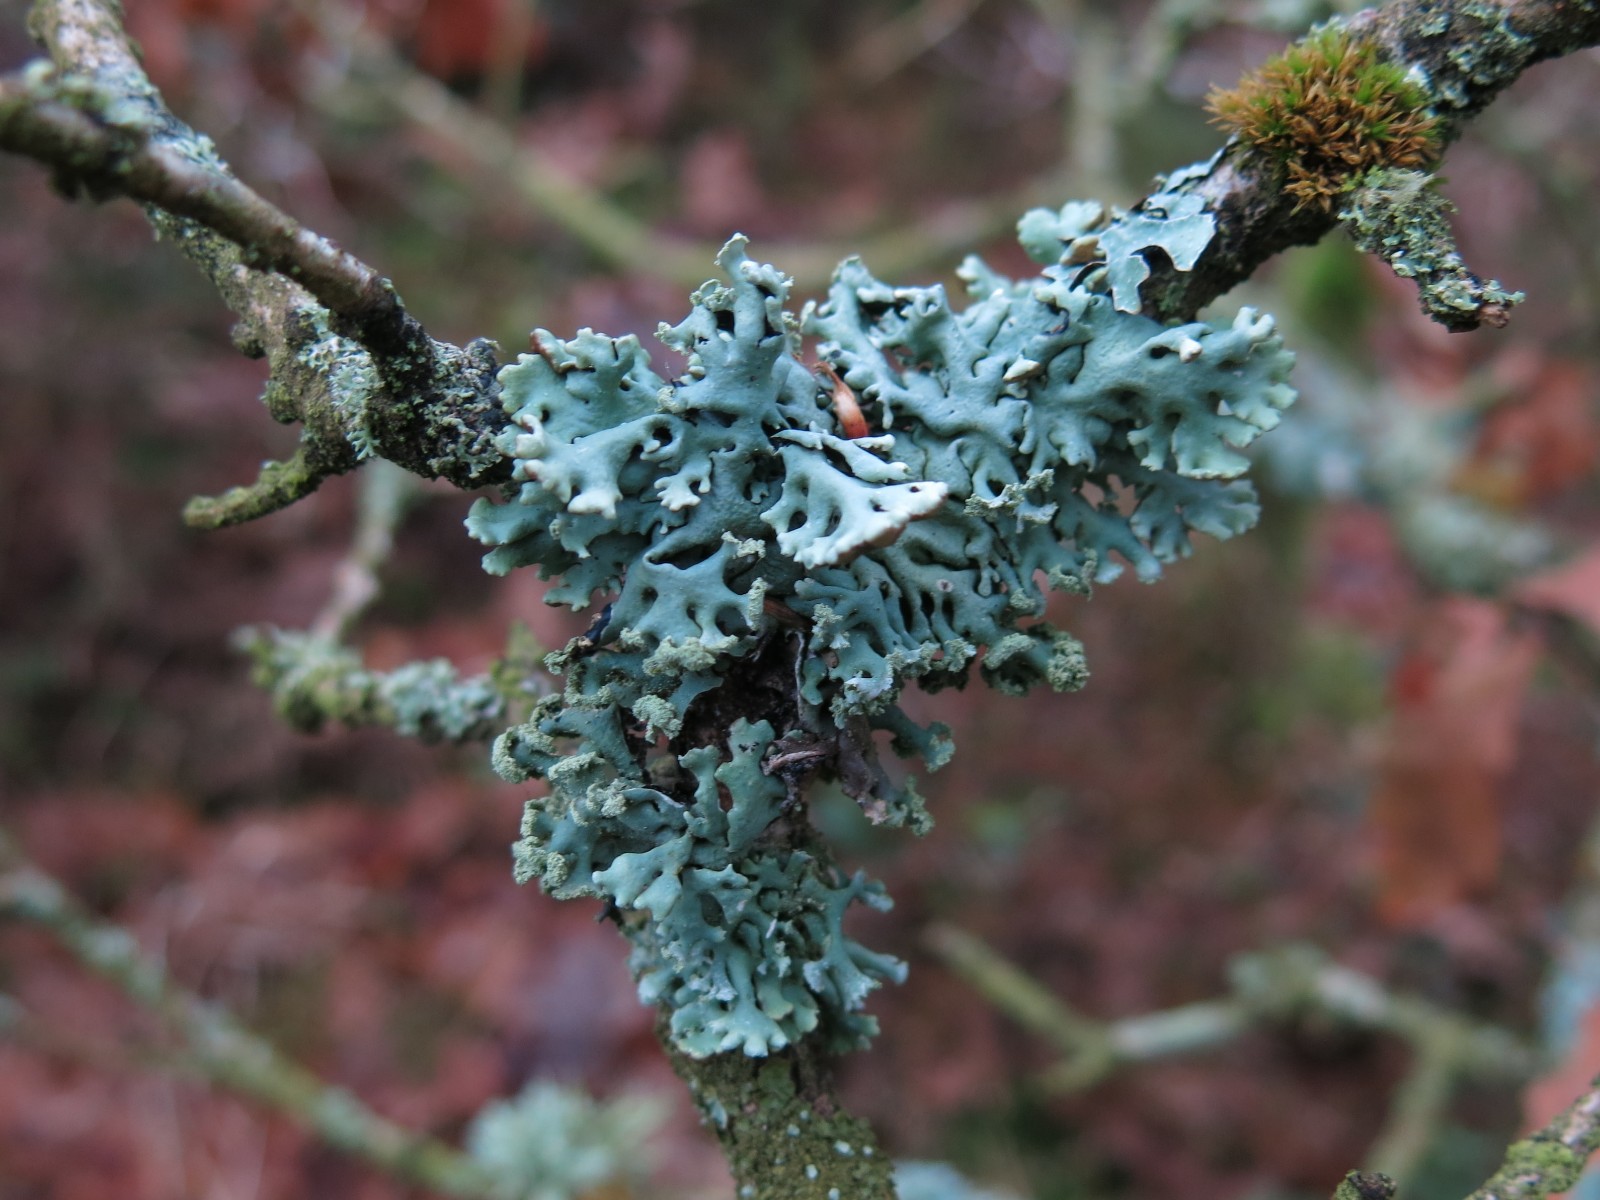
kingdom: Fungi
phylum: Ascomycota
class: Lecanoromycetes
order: Lecanorales
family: Parmeliaceae
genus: Hypogymnia
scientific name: Hypogymnia physodes
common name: almindelig kvistlav
